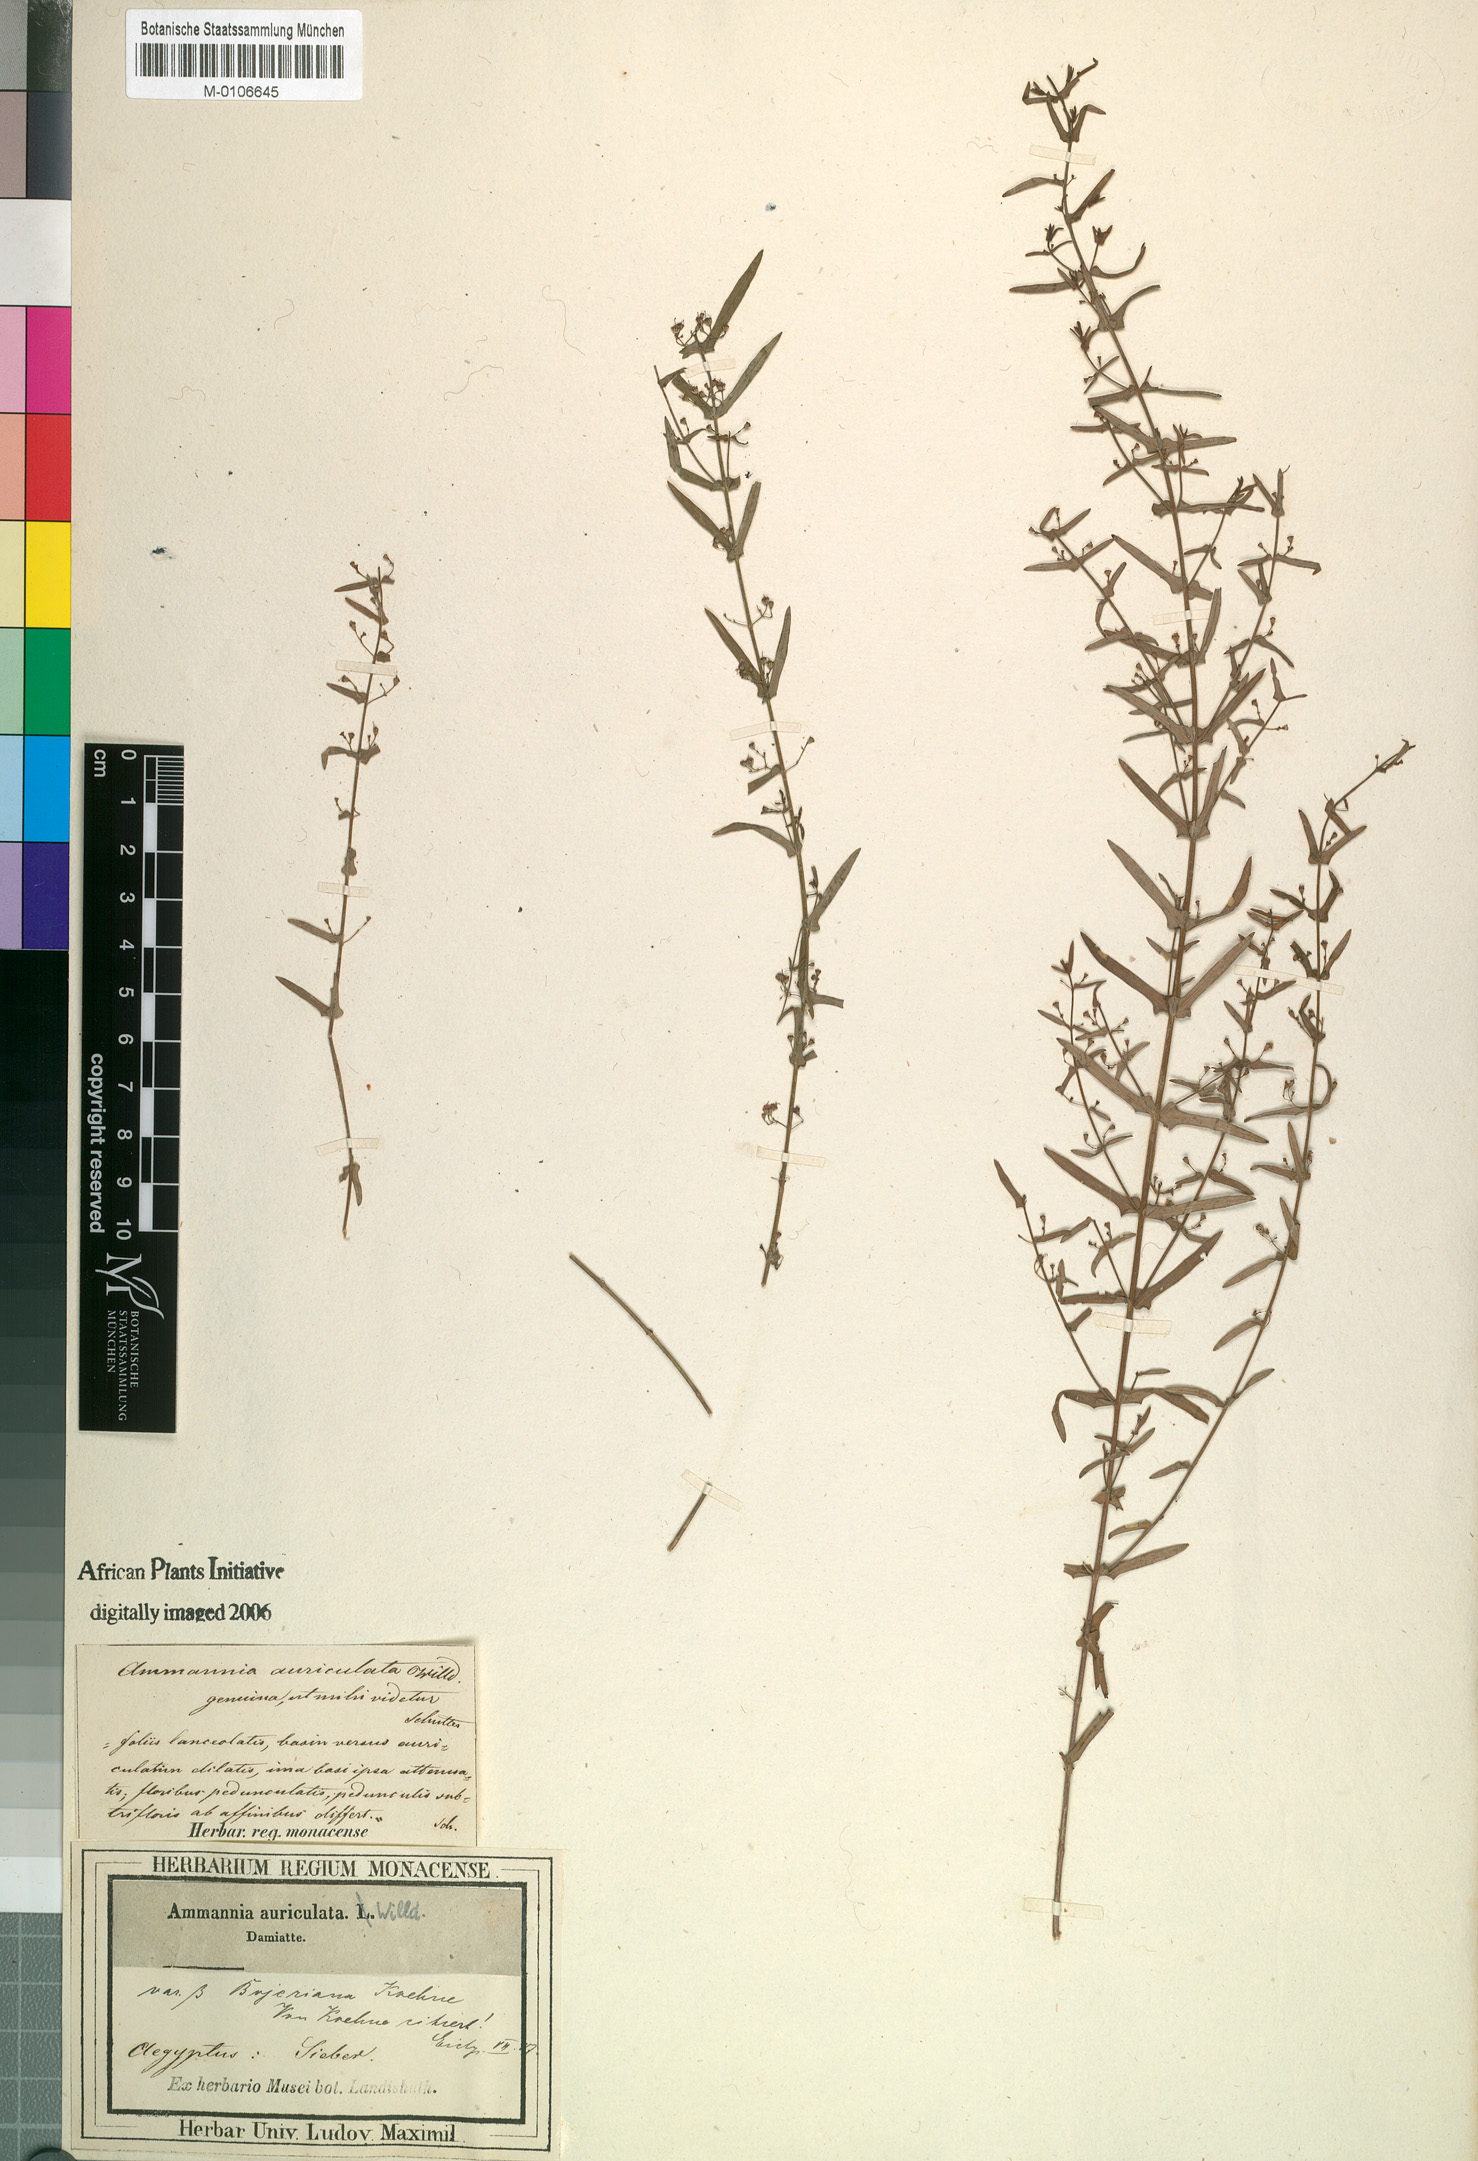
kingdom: Plantae
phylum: Tracheophyta
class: Magnoliopsida
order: Myrtales
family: Lythraceae
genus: Ammannia
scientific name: Ammannia auriculata
